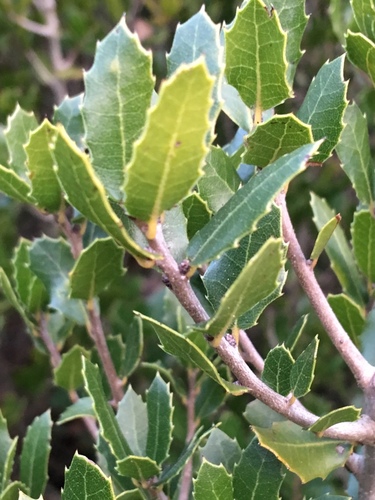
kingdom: Plantae
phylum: Tracheophyta
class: Magnoliopsida
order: Fagales
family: Fagaceae
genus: Quercus
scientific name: Quercus coccifera
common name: Kermes oak
